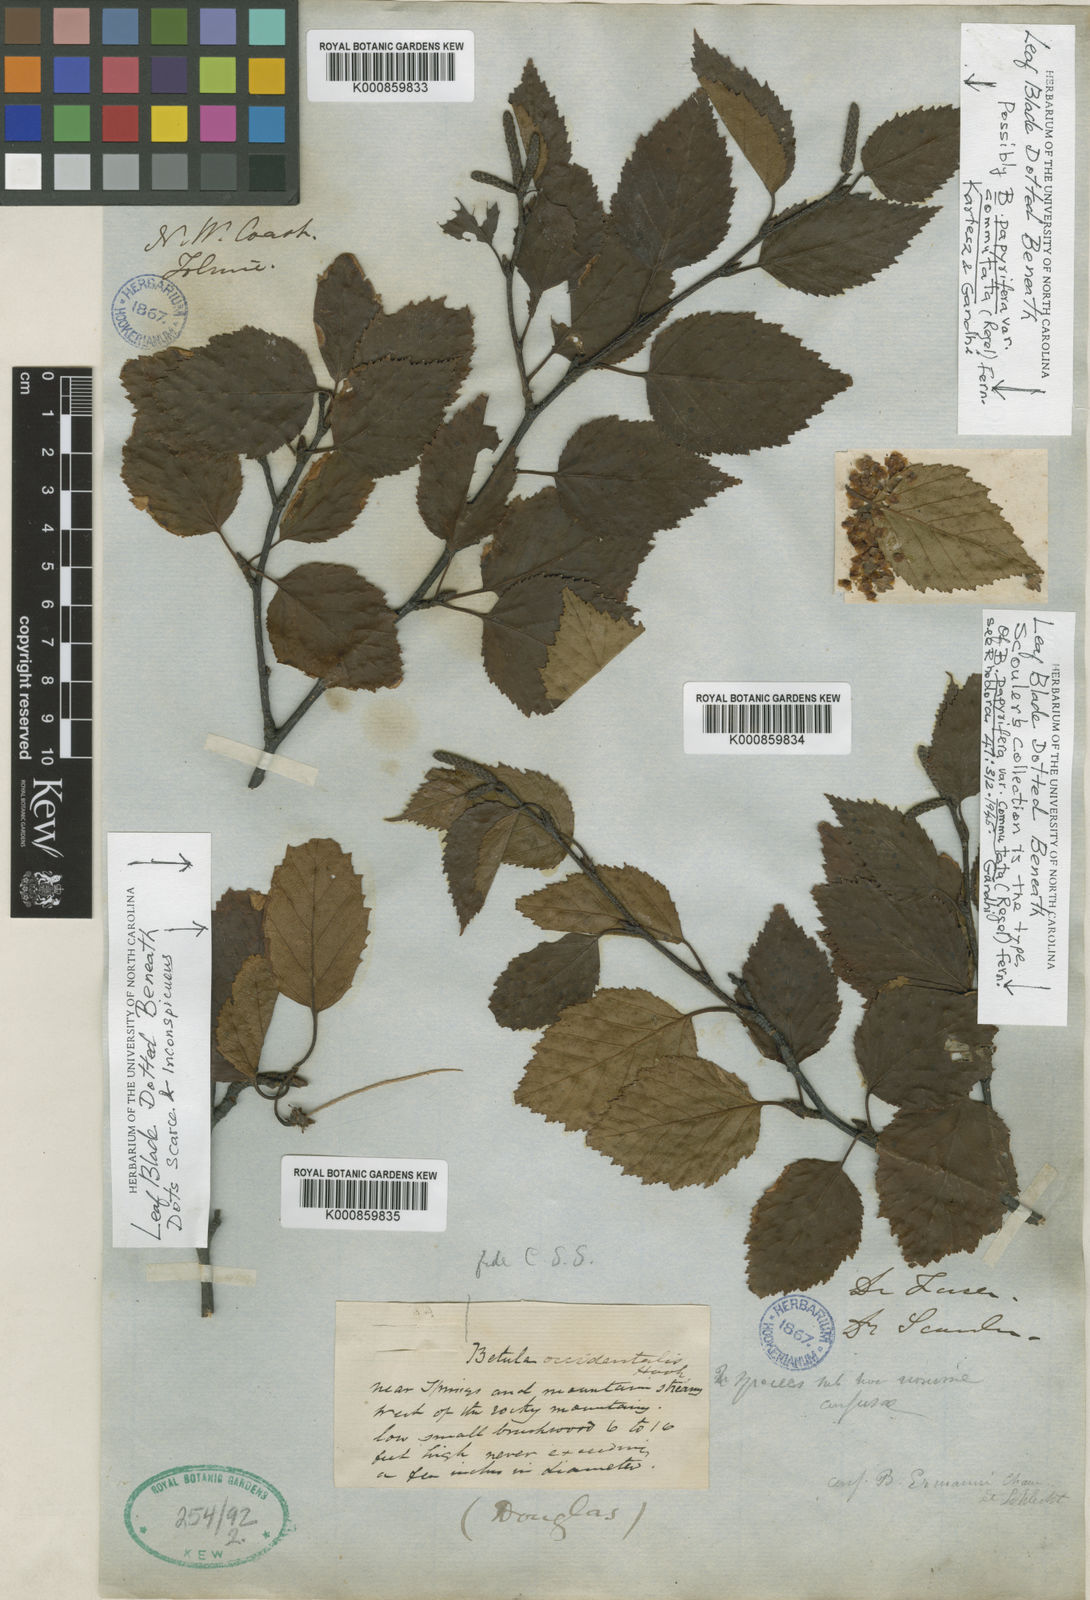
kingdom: Plantae
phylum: Tracheophyta
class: Magnoliopsida
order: Fagales
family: Betulaceae
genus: Betula
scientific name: Betula occidentalis
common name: River birch
